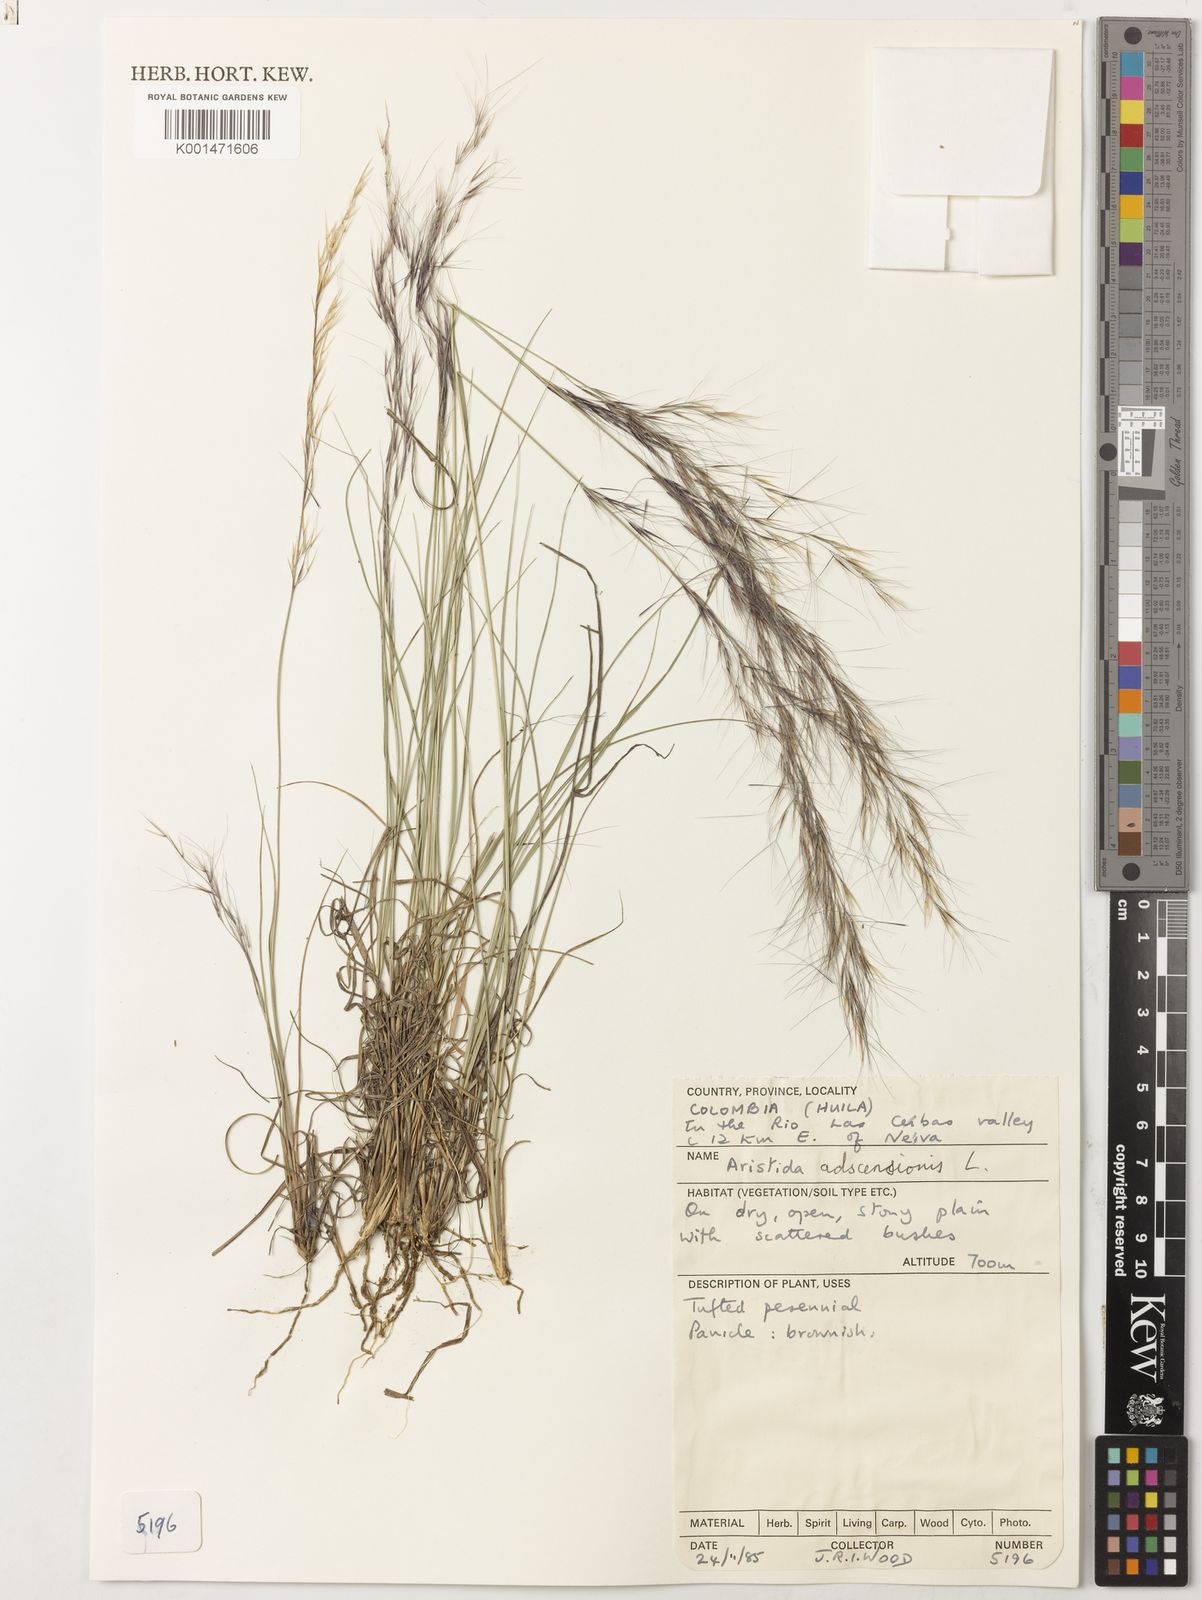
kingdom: Plantae
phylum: Tracheophyta
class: Liliopsida
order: Poales
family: Poaceae
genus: Aristida
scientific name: Aristida adscensionis
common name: Sixweeks threeawn
